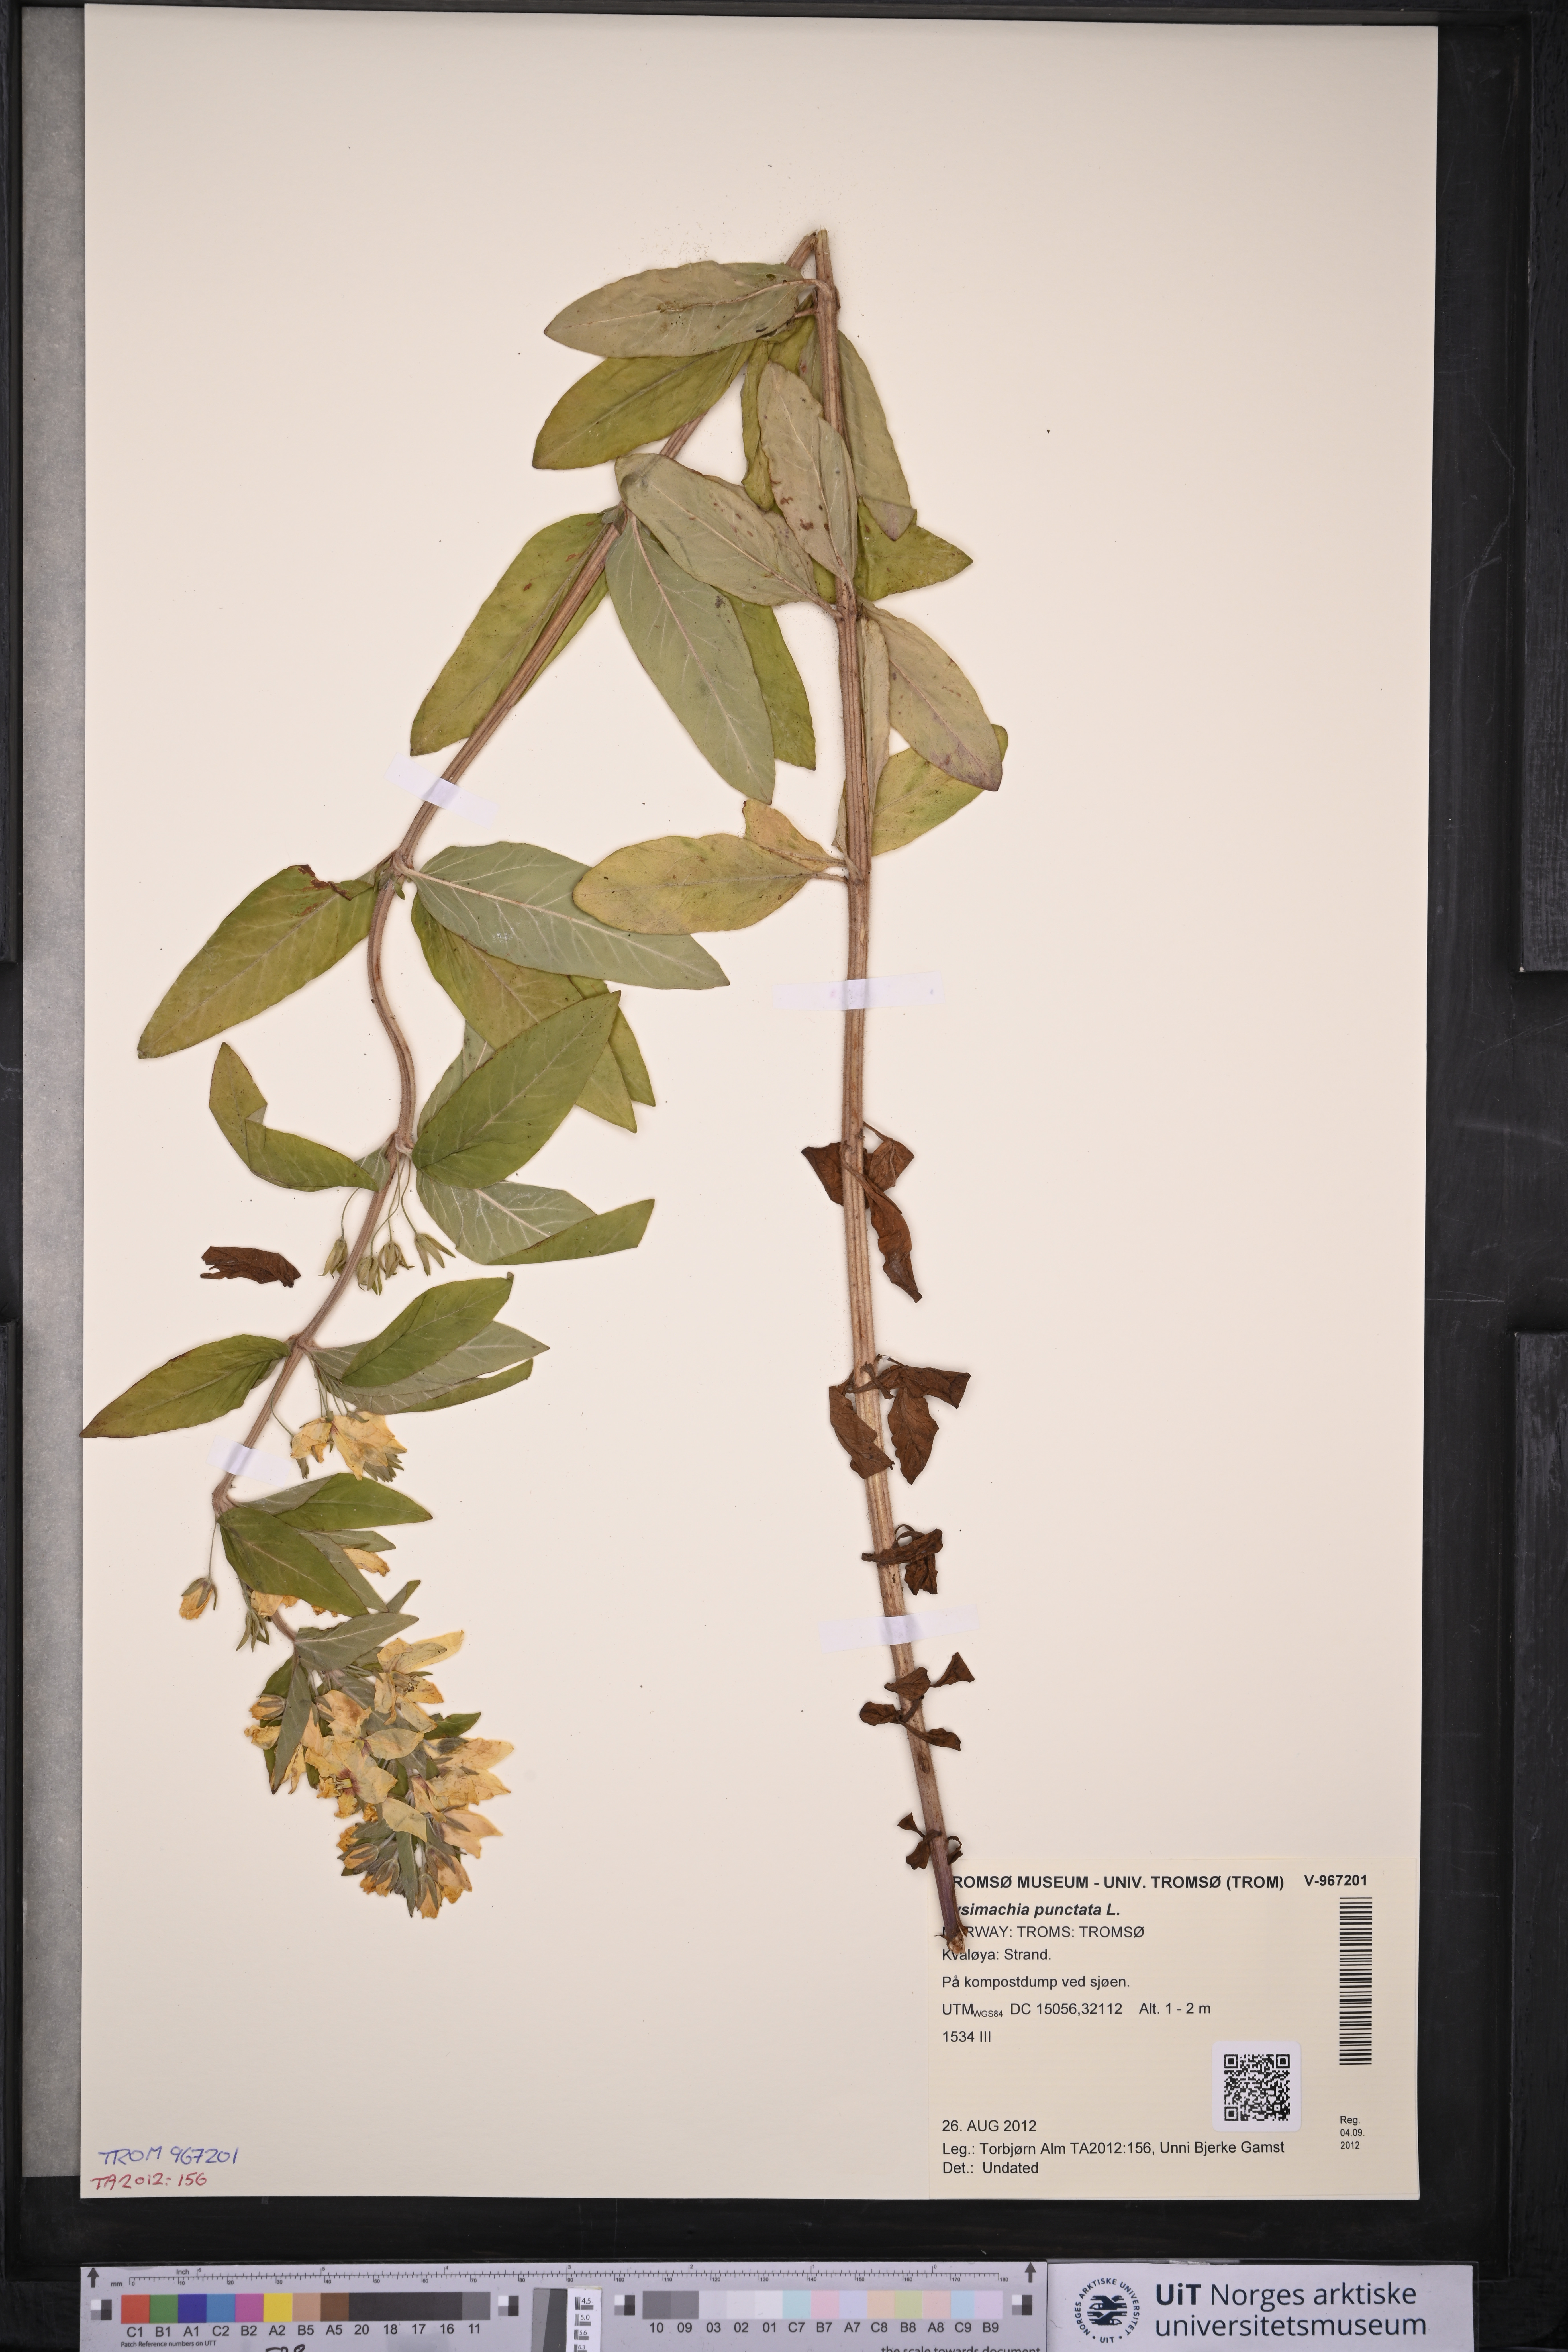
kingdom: Plantae
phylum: Tracheophyta
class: Magnoliopsida
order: Ericales
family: Primulaceae
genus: Lysimachia
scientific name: Lysimachia punctata
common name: Dotted loosestrife
